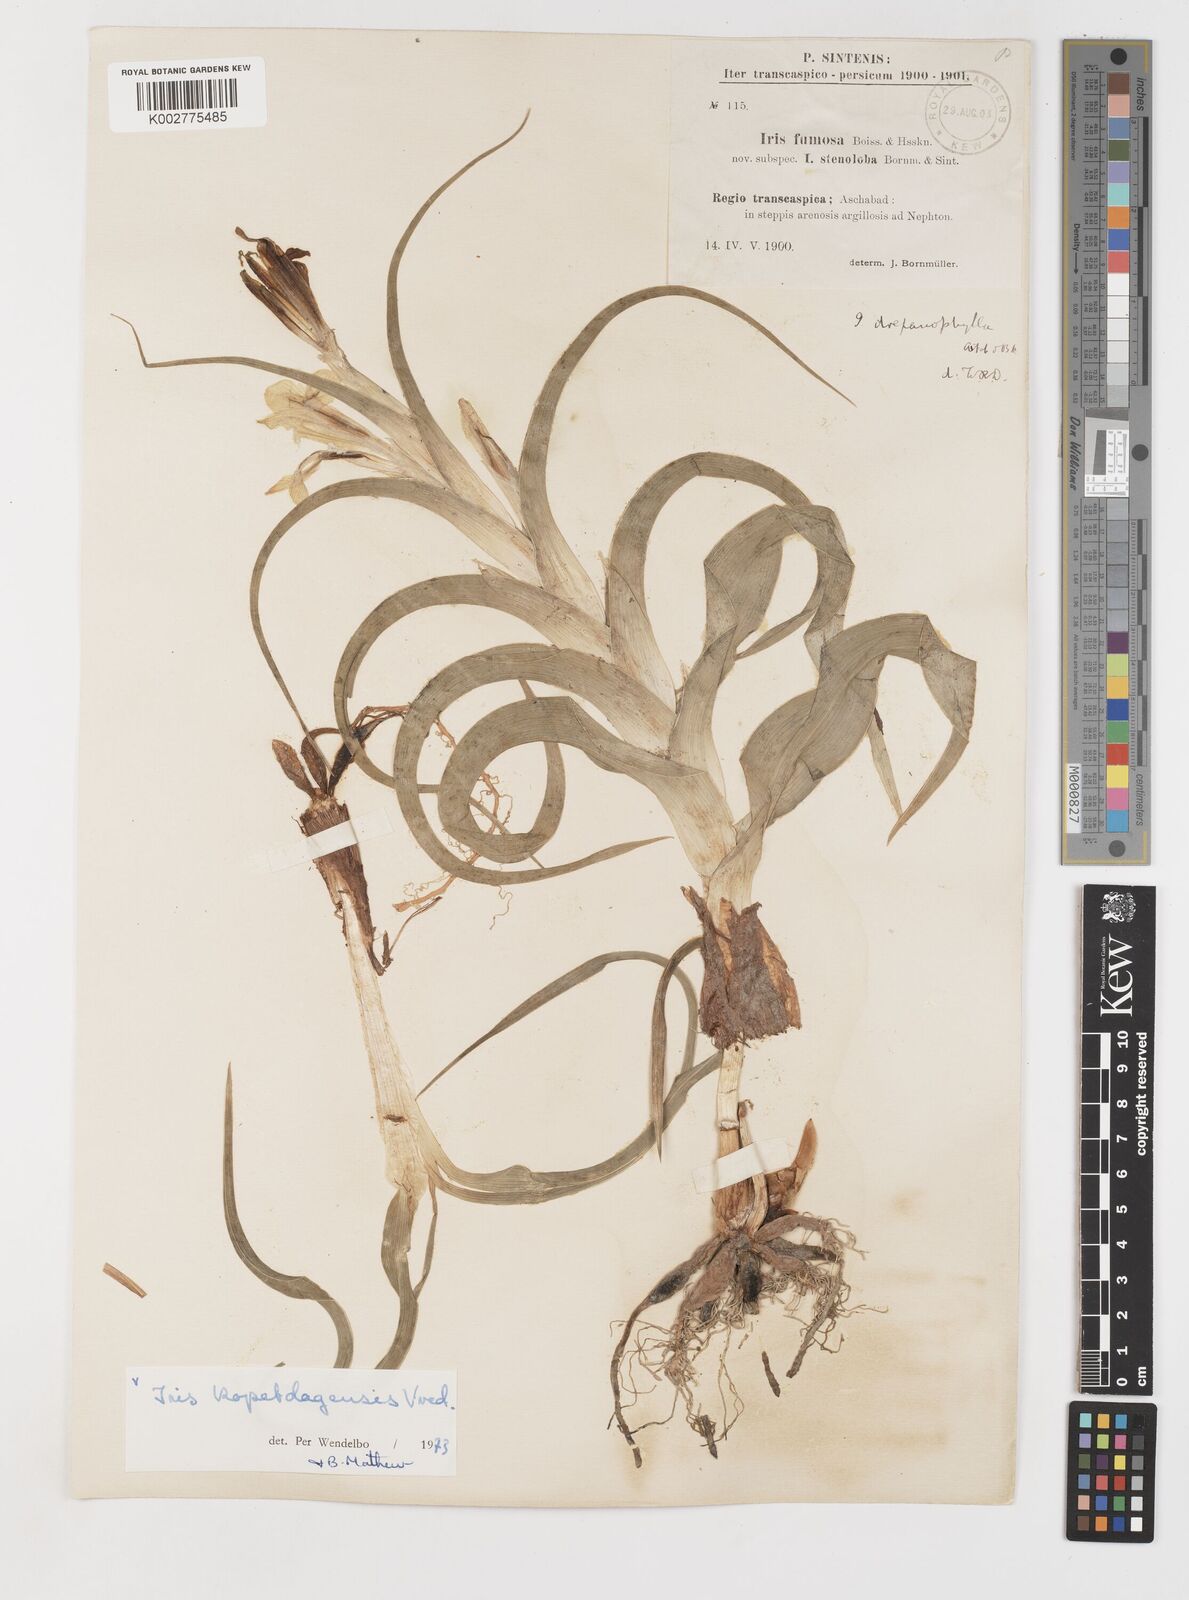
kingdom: Plantae
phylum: Tracheophyta
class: Liliopsida
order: Asparagales
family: Iridaceae
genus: Iris
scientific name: Iris kopetdagensis
